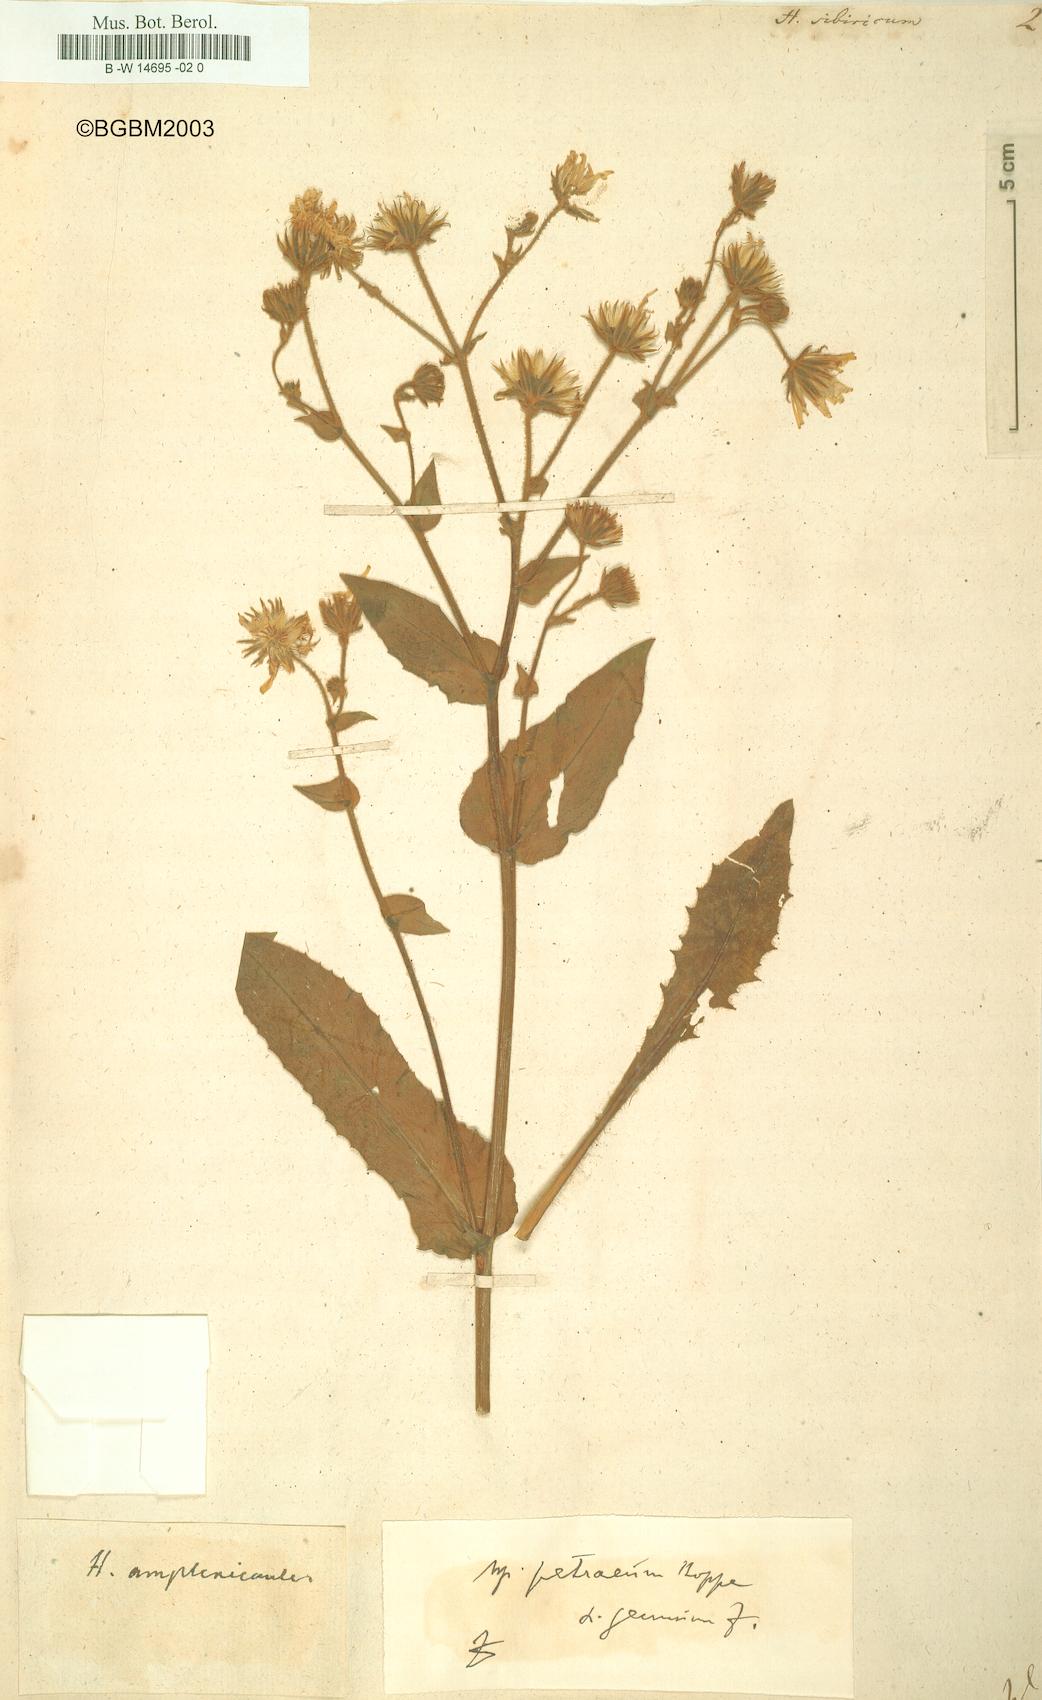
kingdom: Plantae
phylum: Tracheophyta
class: Magnoliopsida
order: Asterales
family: Asteraceae
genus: Crepis
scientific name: Crepis sibirica
